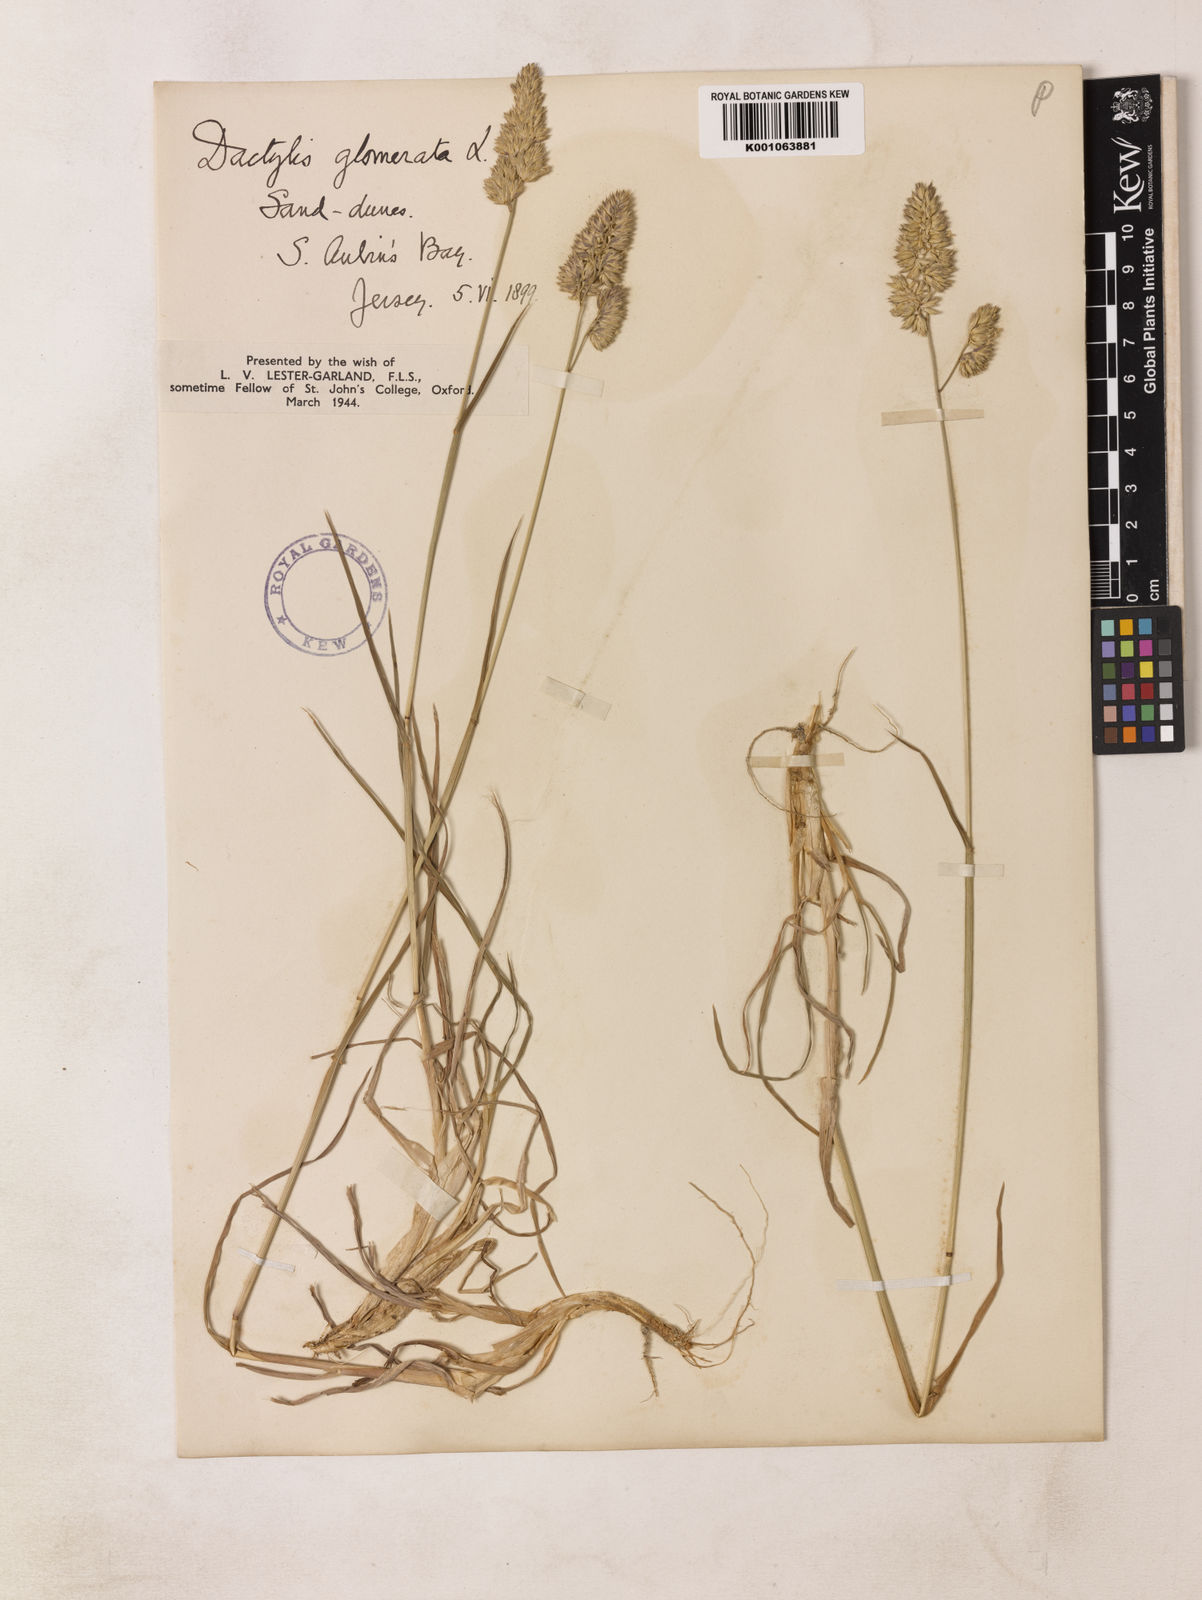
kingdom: Plantae
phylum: Tracheophyta
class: Liliopsida
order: Poales
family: Poaceae
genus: Dactylis
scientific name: Dactylis glomerata
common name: Orchardgrass
